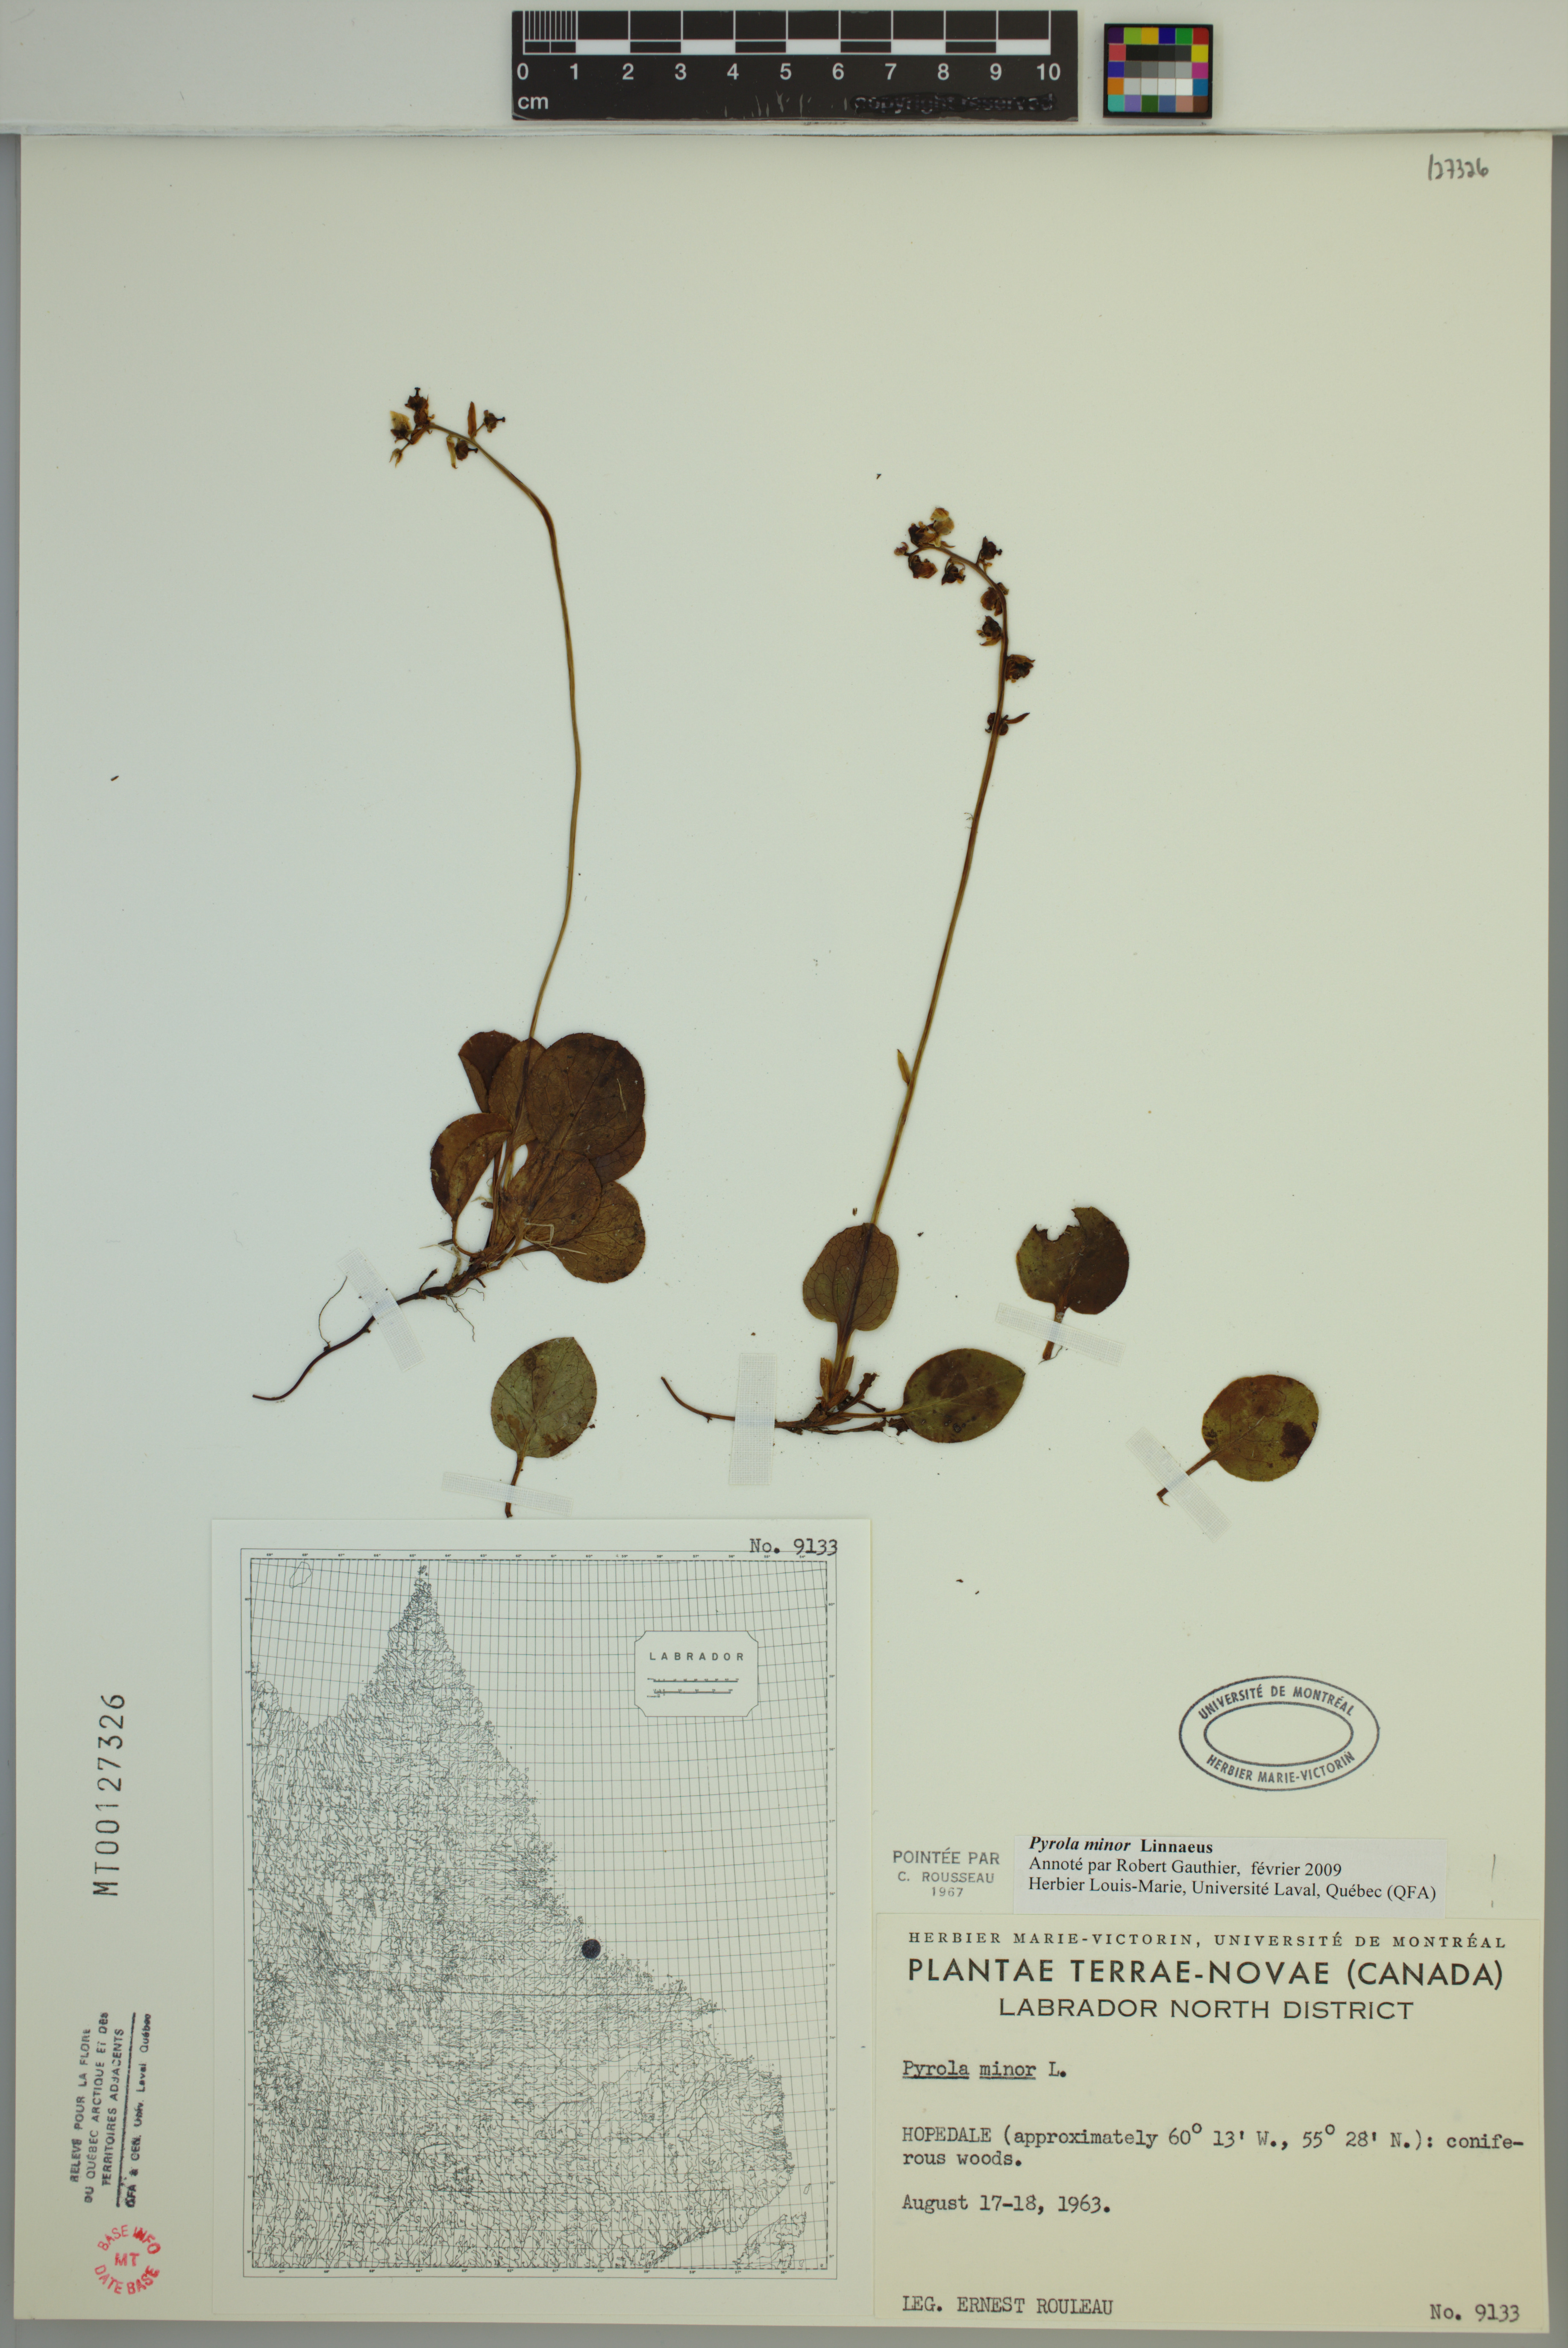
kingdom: Plantae
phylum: Tracheophyta
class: Magnoliopsida
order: Ericales
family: Ericaceae
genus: Pyrola
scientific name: Pyrola minor
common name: Common wintergreen
